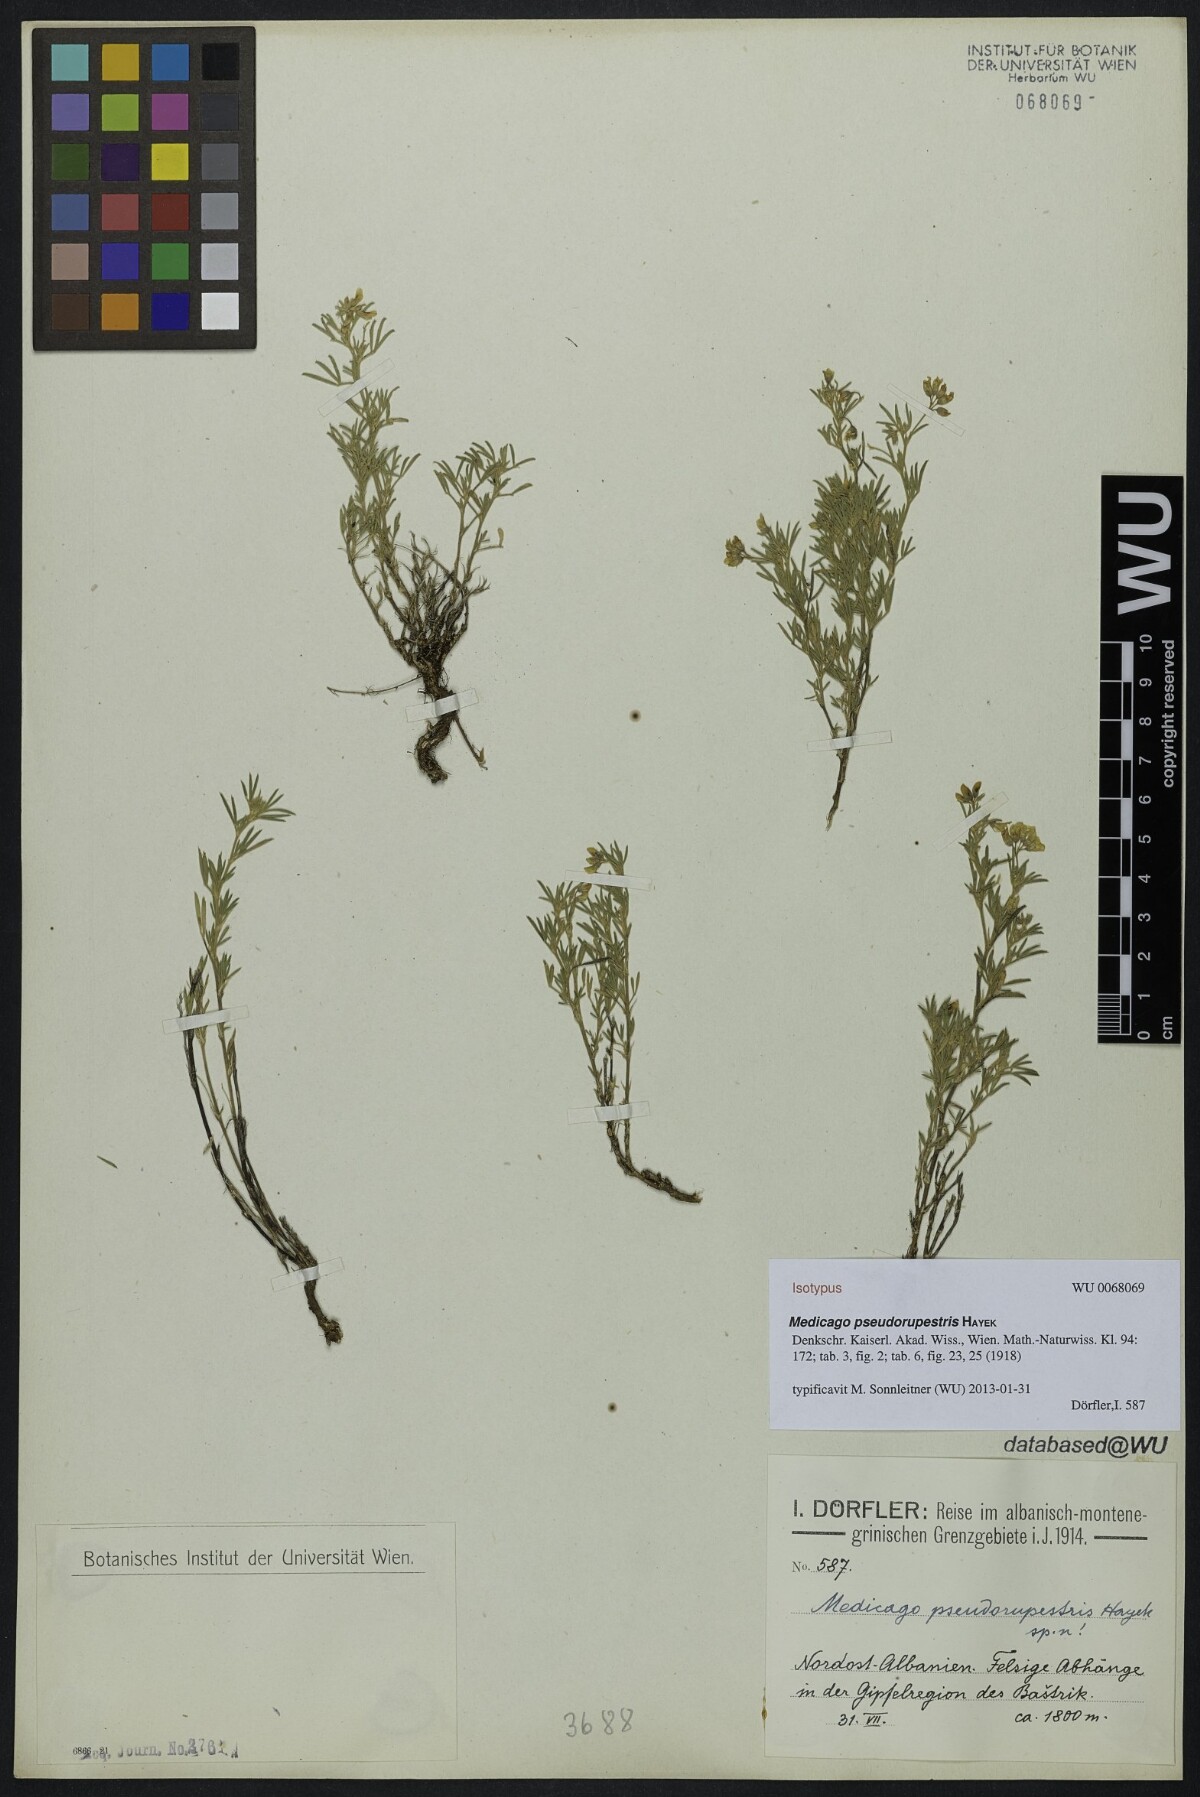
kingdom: Plantae
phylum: Tracheophyta
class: Magnoliopsida
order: Fabales
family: Fabaceae
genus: Medicago
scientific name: Medicago prostrata
